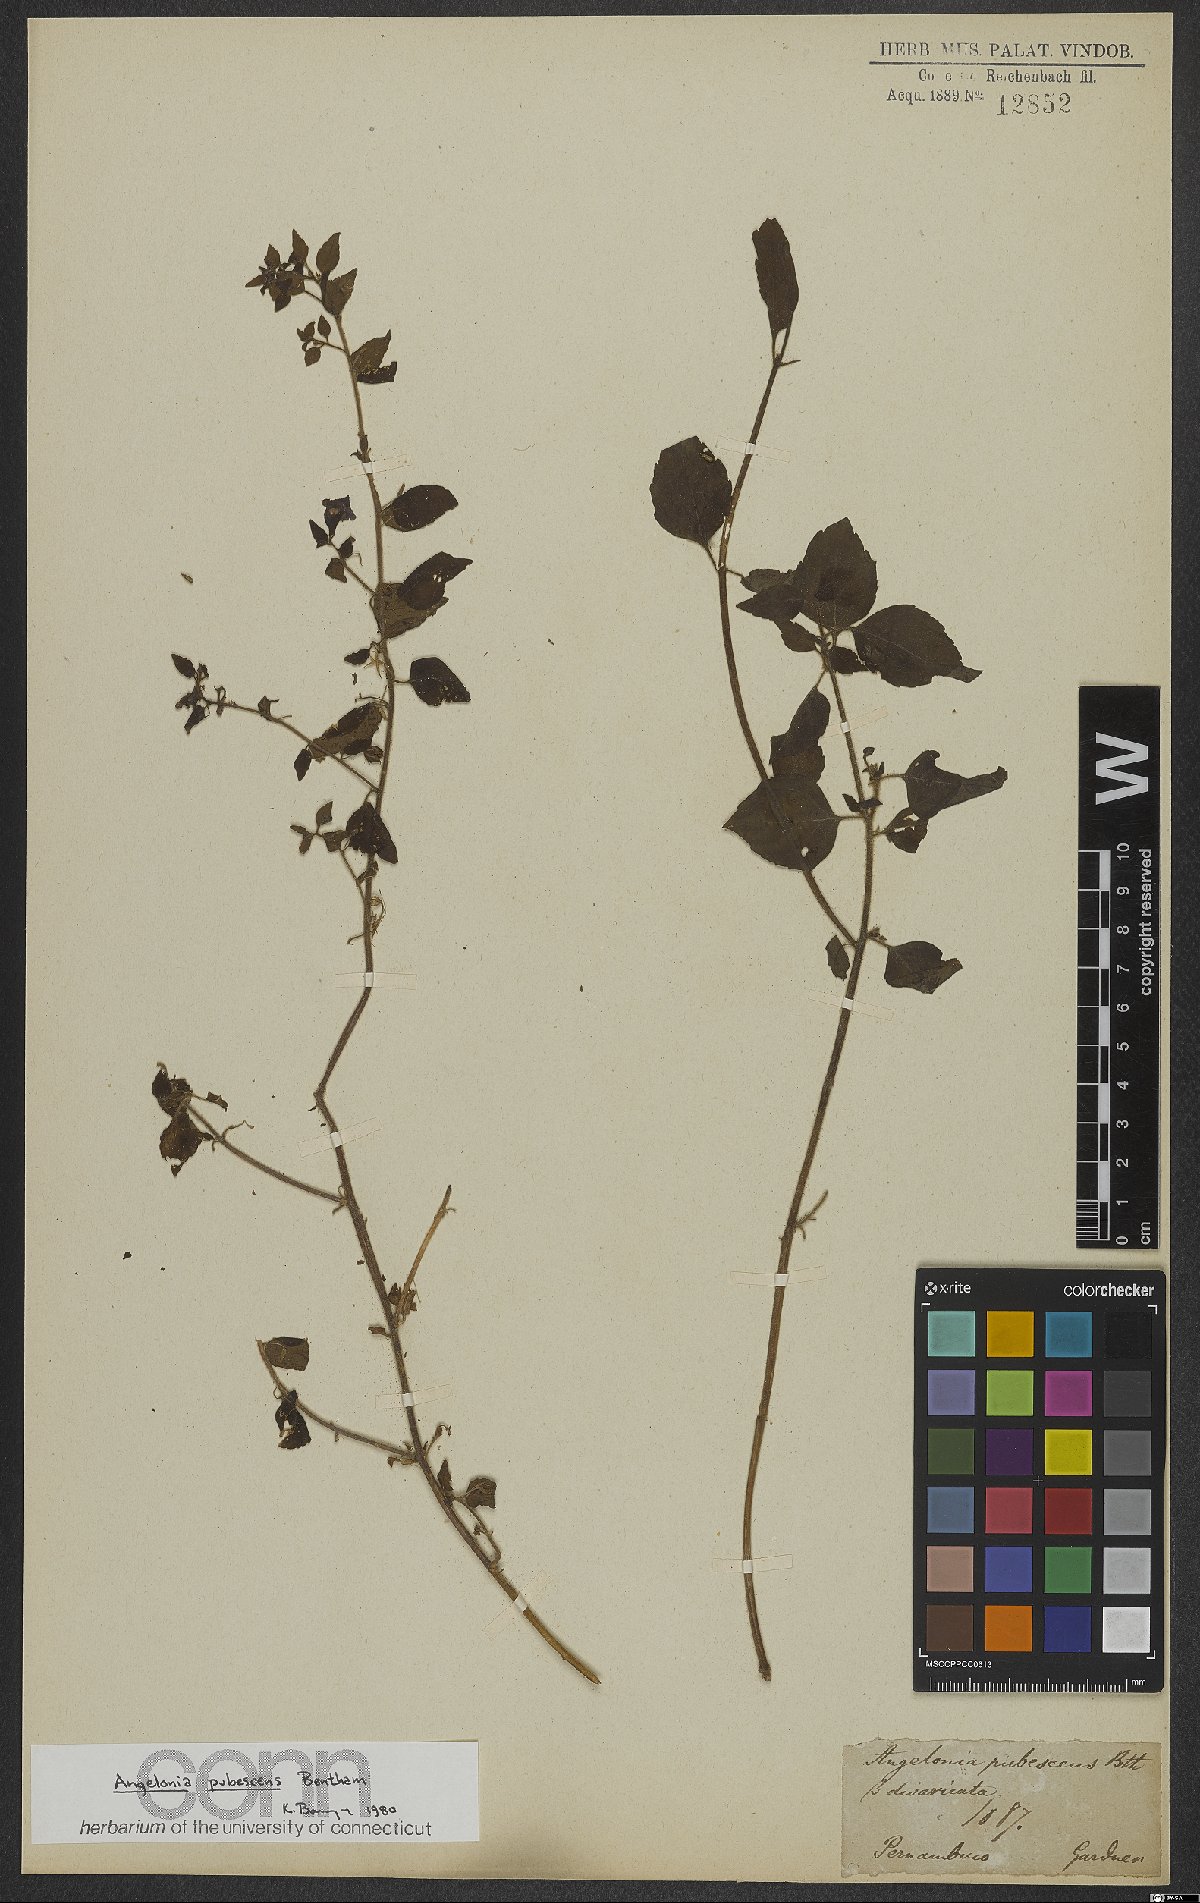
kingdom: Plantae
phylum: Tracheophyta
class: Magnoliopsida
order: Lamiales
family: Plantaginaceae
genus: Angelonia
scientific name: Angelonia pubescens
